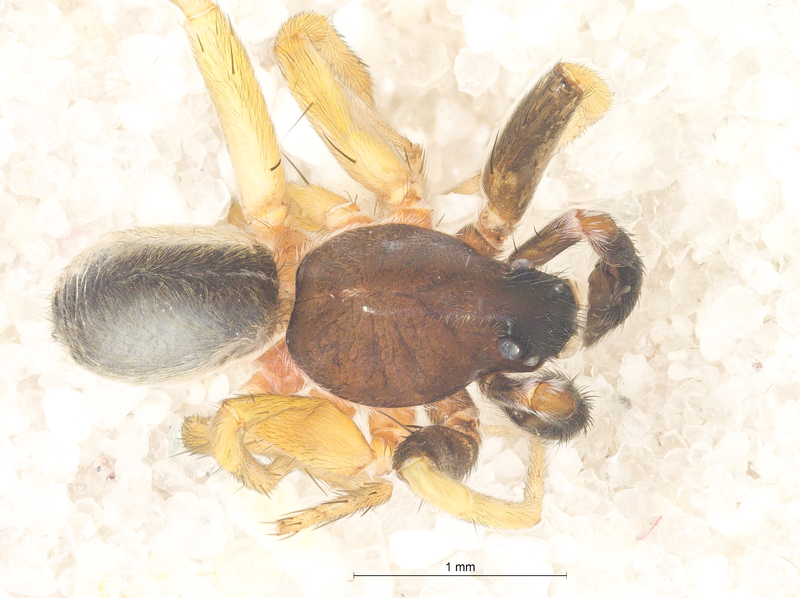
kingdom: Animalia
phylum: Arthropoda
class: Arachnida
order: Araneae
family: Lycosidae
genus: Aulonia
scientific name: Aulonia albimana
